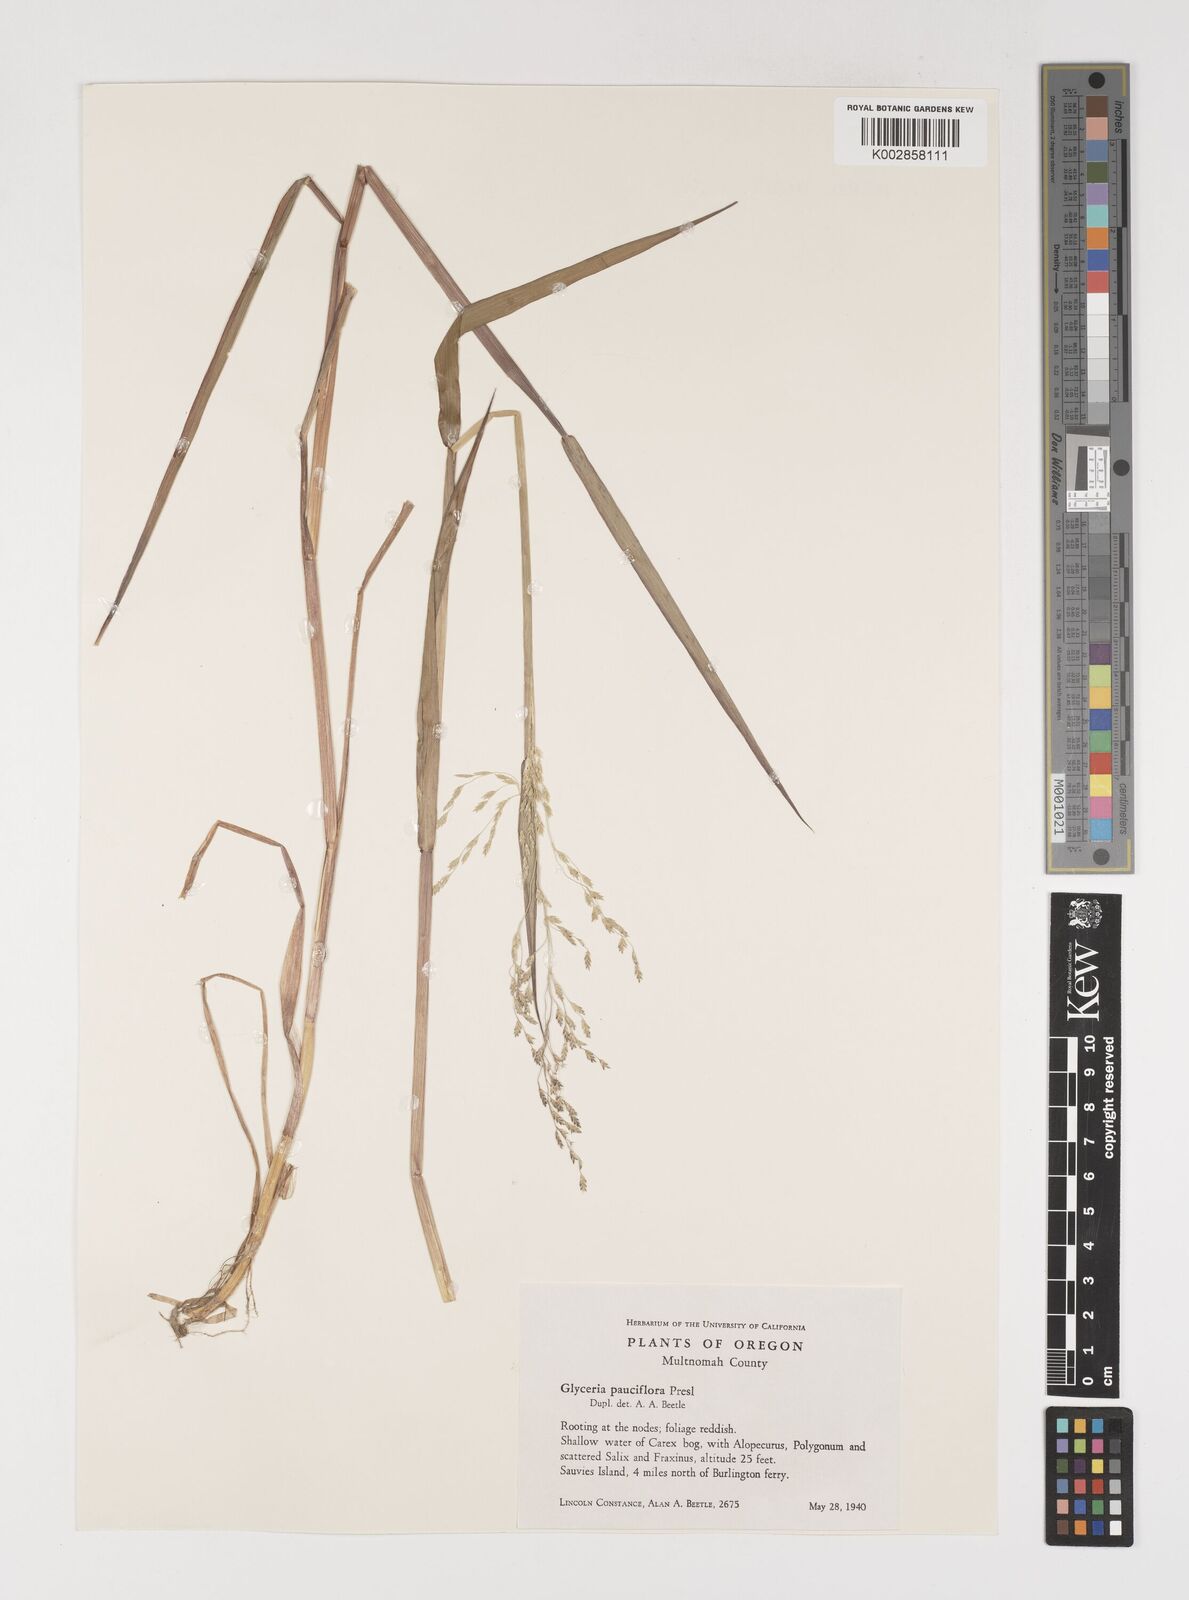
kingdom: Plantae
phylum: Tracheophyta
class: Liliopsida
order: Poales
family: Poaceae
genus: Torreyochloa
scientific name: Torreyochloa pallida
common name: Pale false mannagrass
